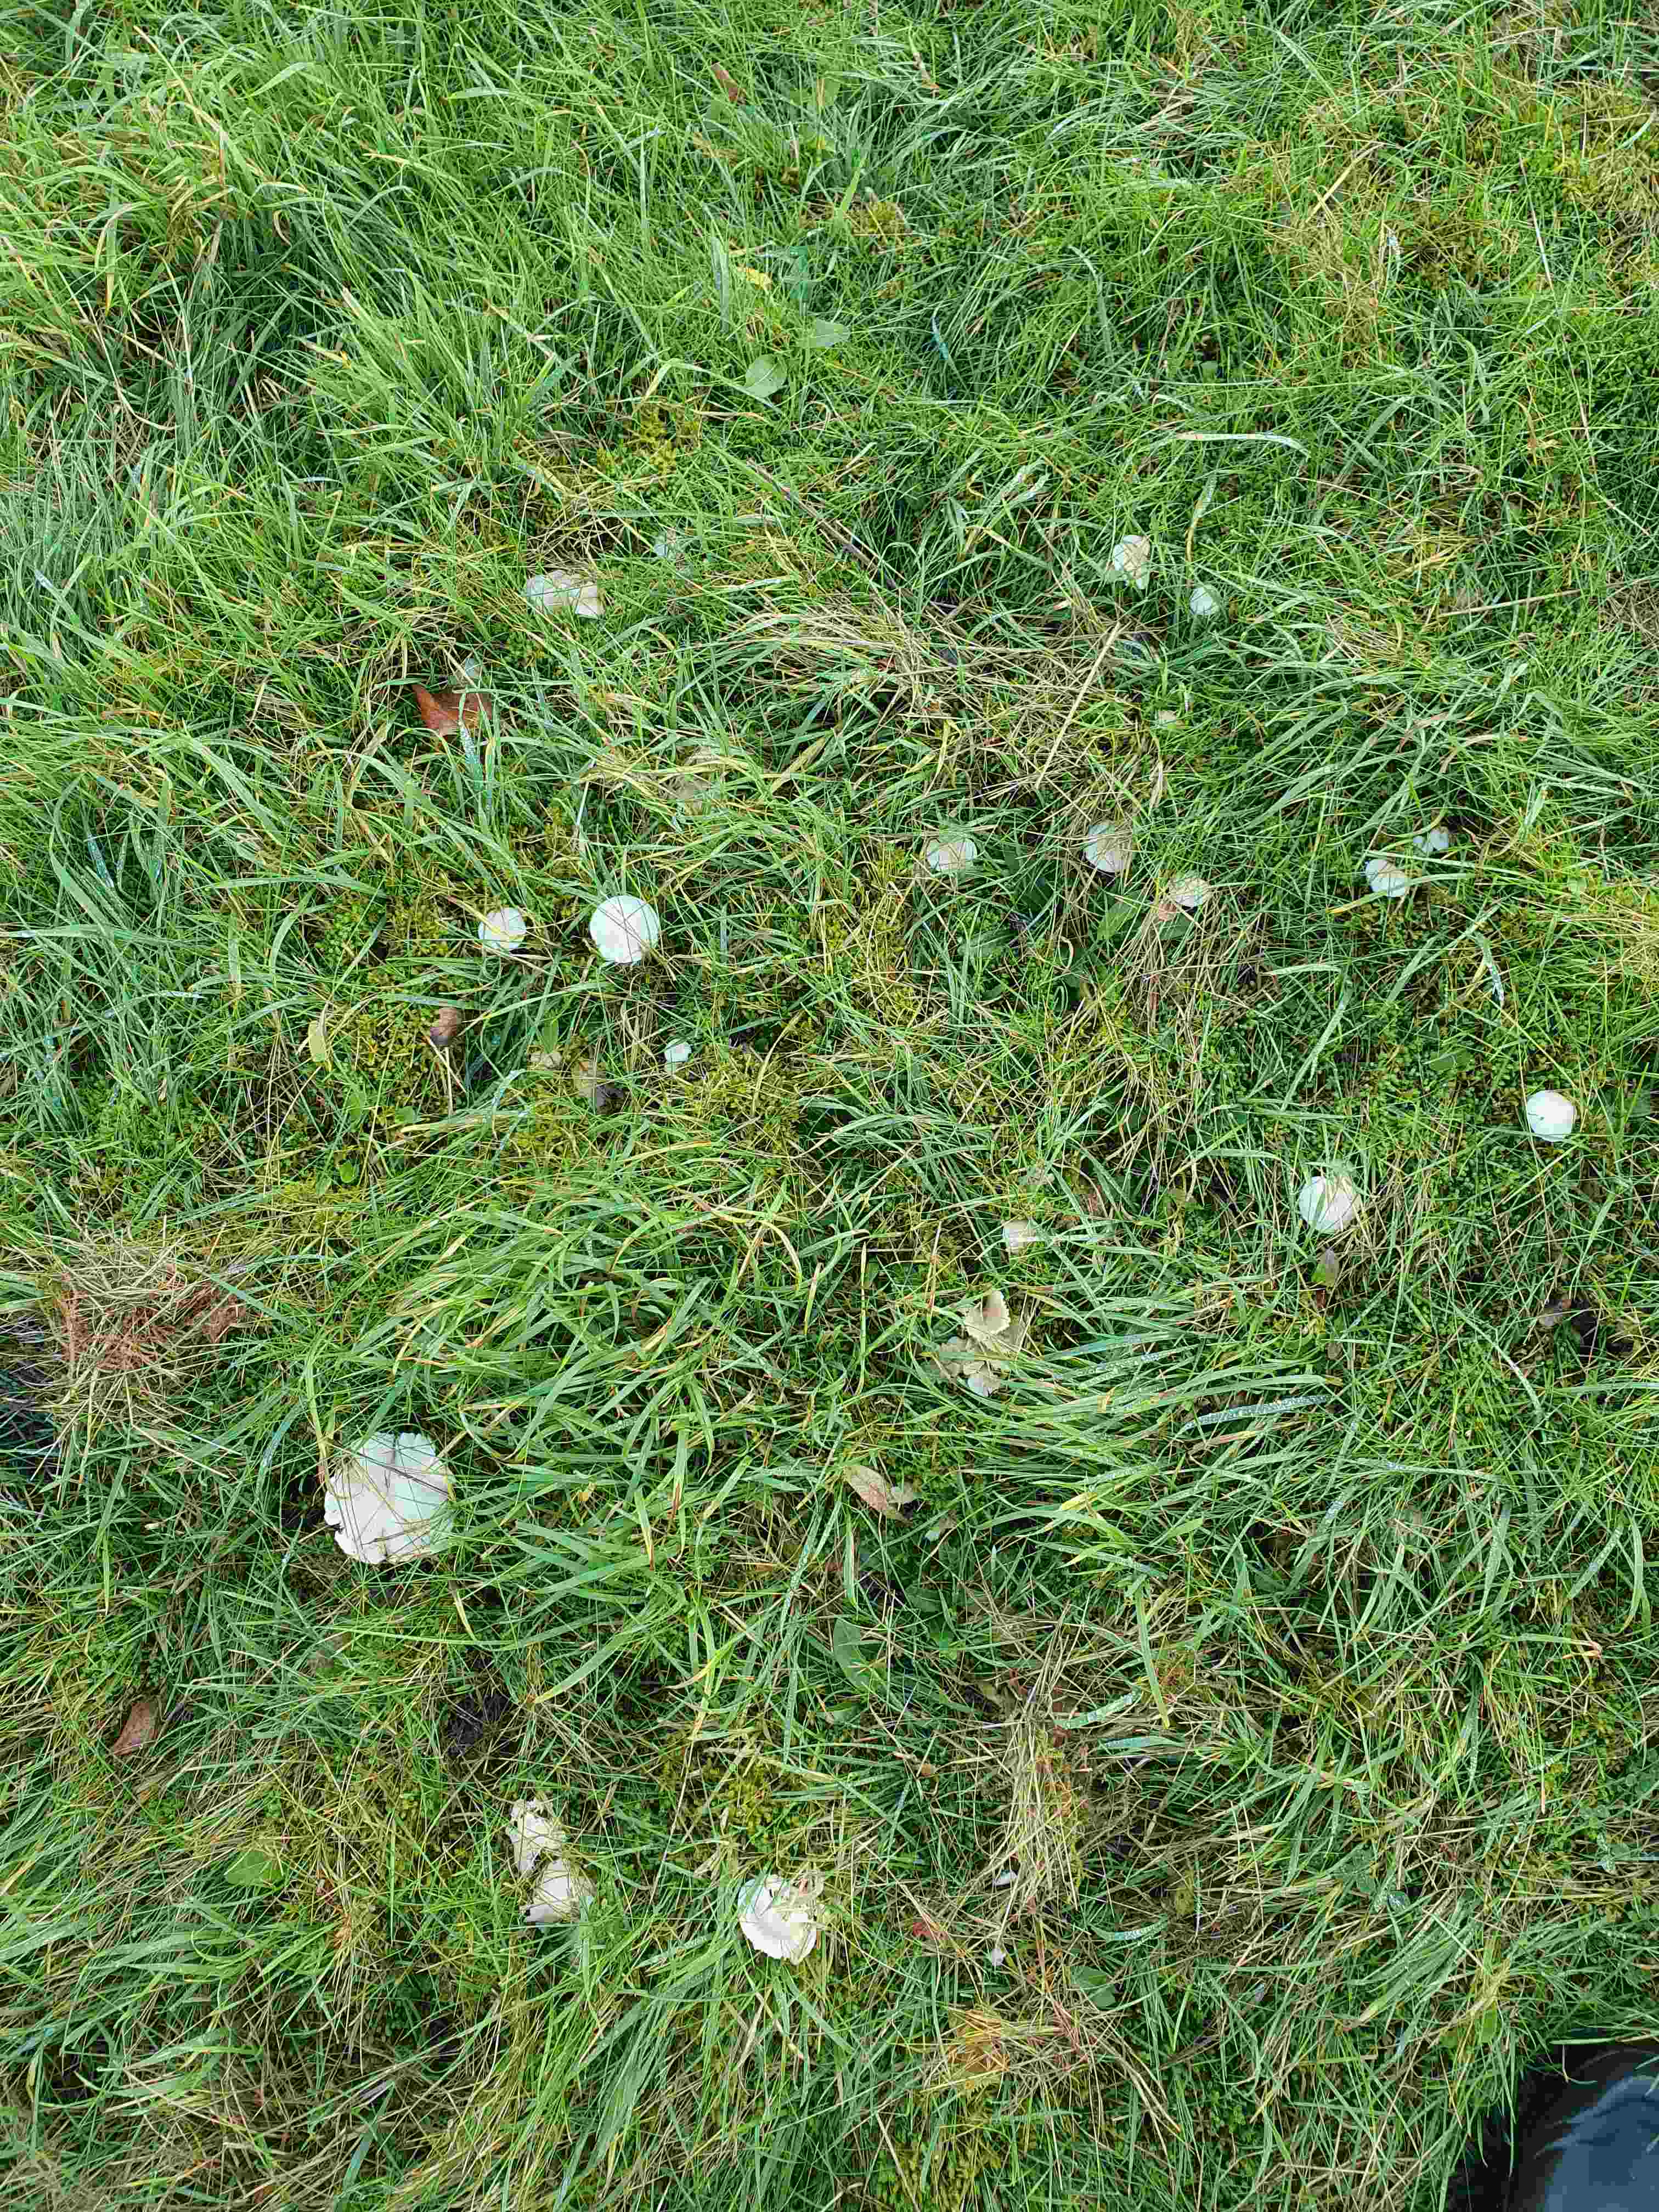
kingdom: Fungi
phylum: Basidiomycota
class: Agaricomycetes
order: Agaricales
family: Hygrophoraceae
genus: Cuphophyllus
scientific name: Cuphophyllus virgineus
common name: snehvid vokshat
